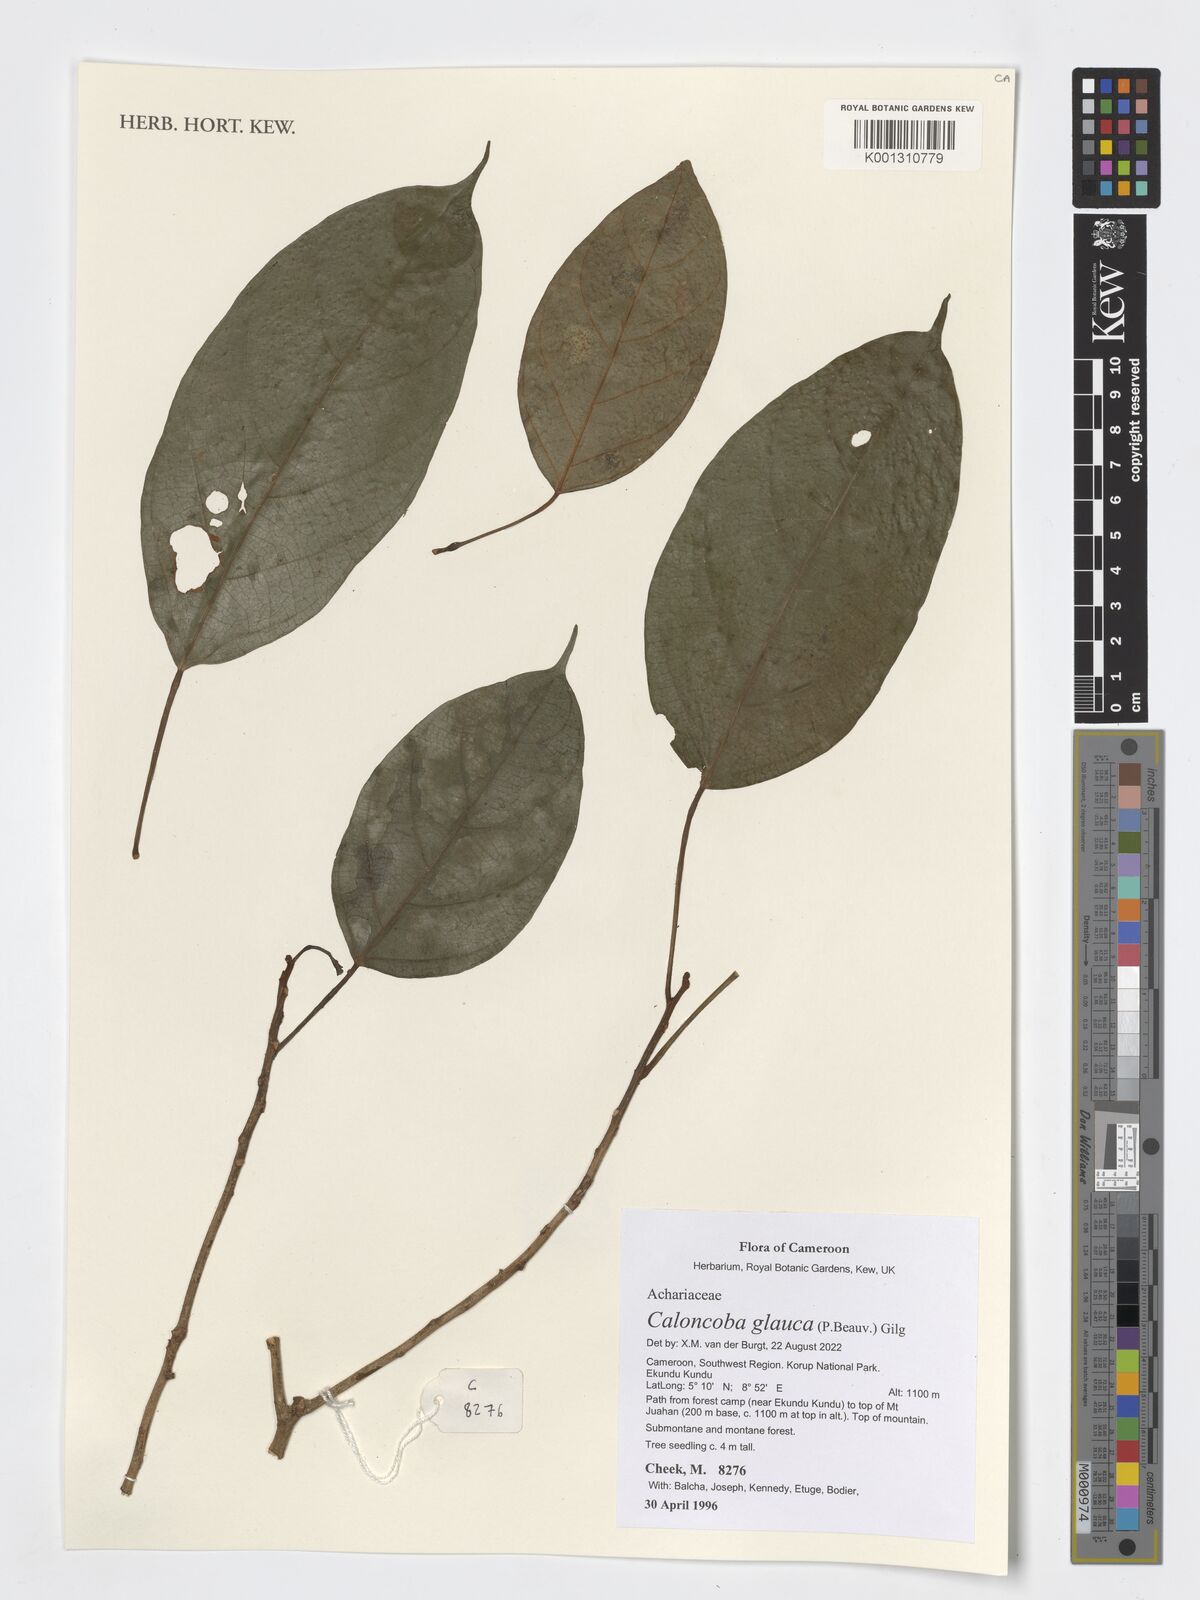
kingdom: Plantae
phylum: Tracheophyta
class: Magnoliopsida
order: Malpighiales
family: Achariaceae
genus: Caloncoba
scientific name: Caloncoba glauca
